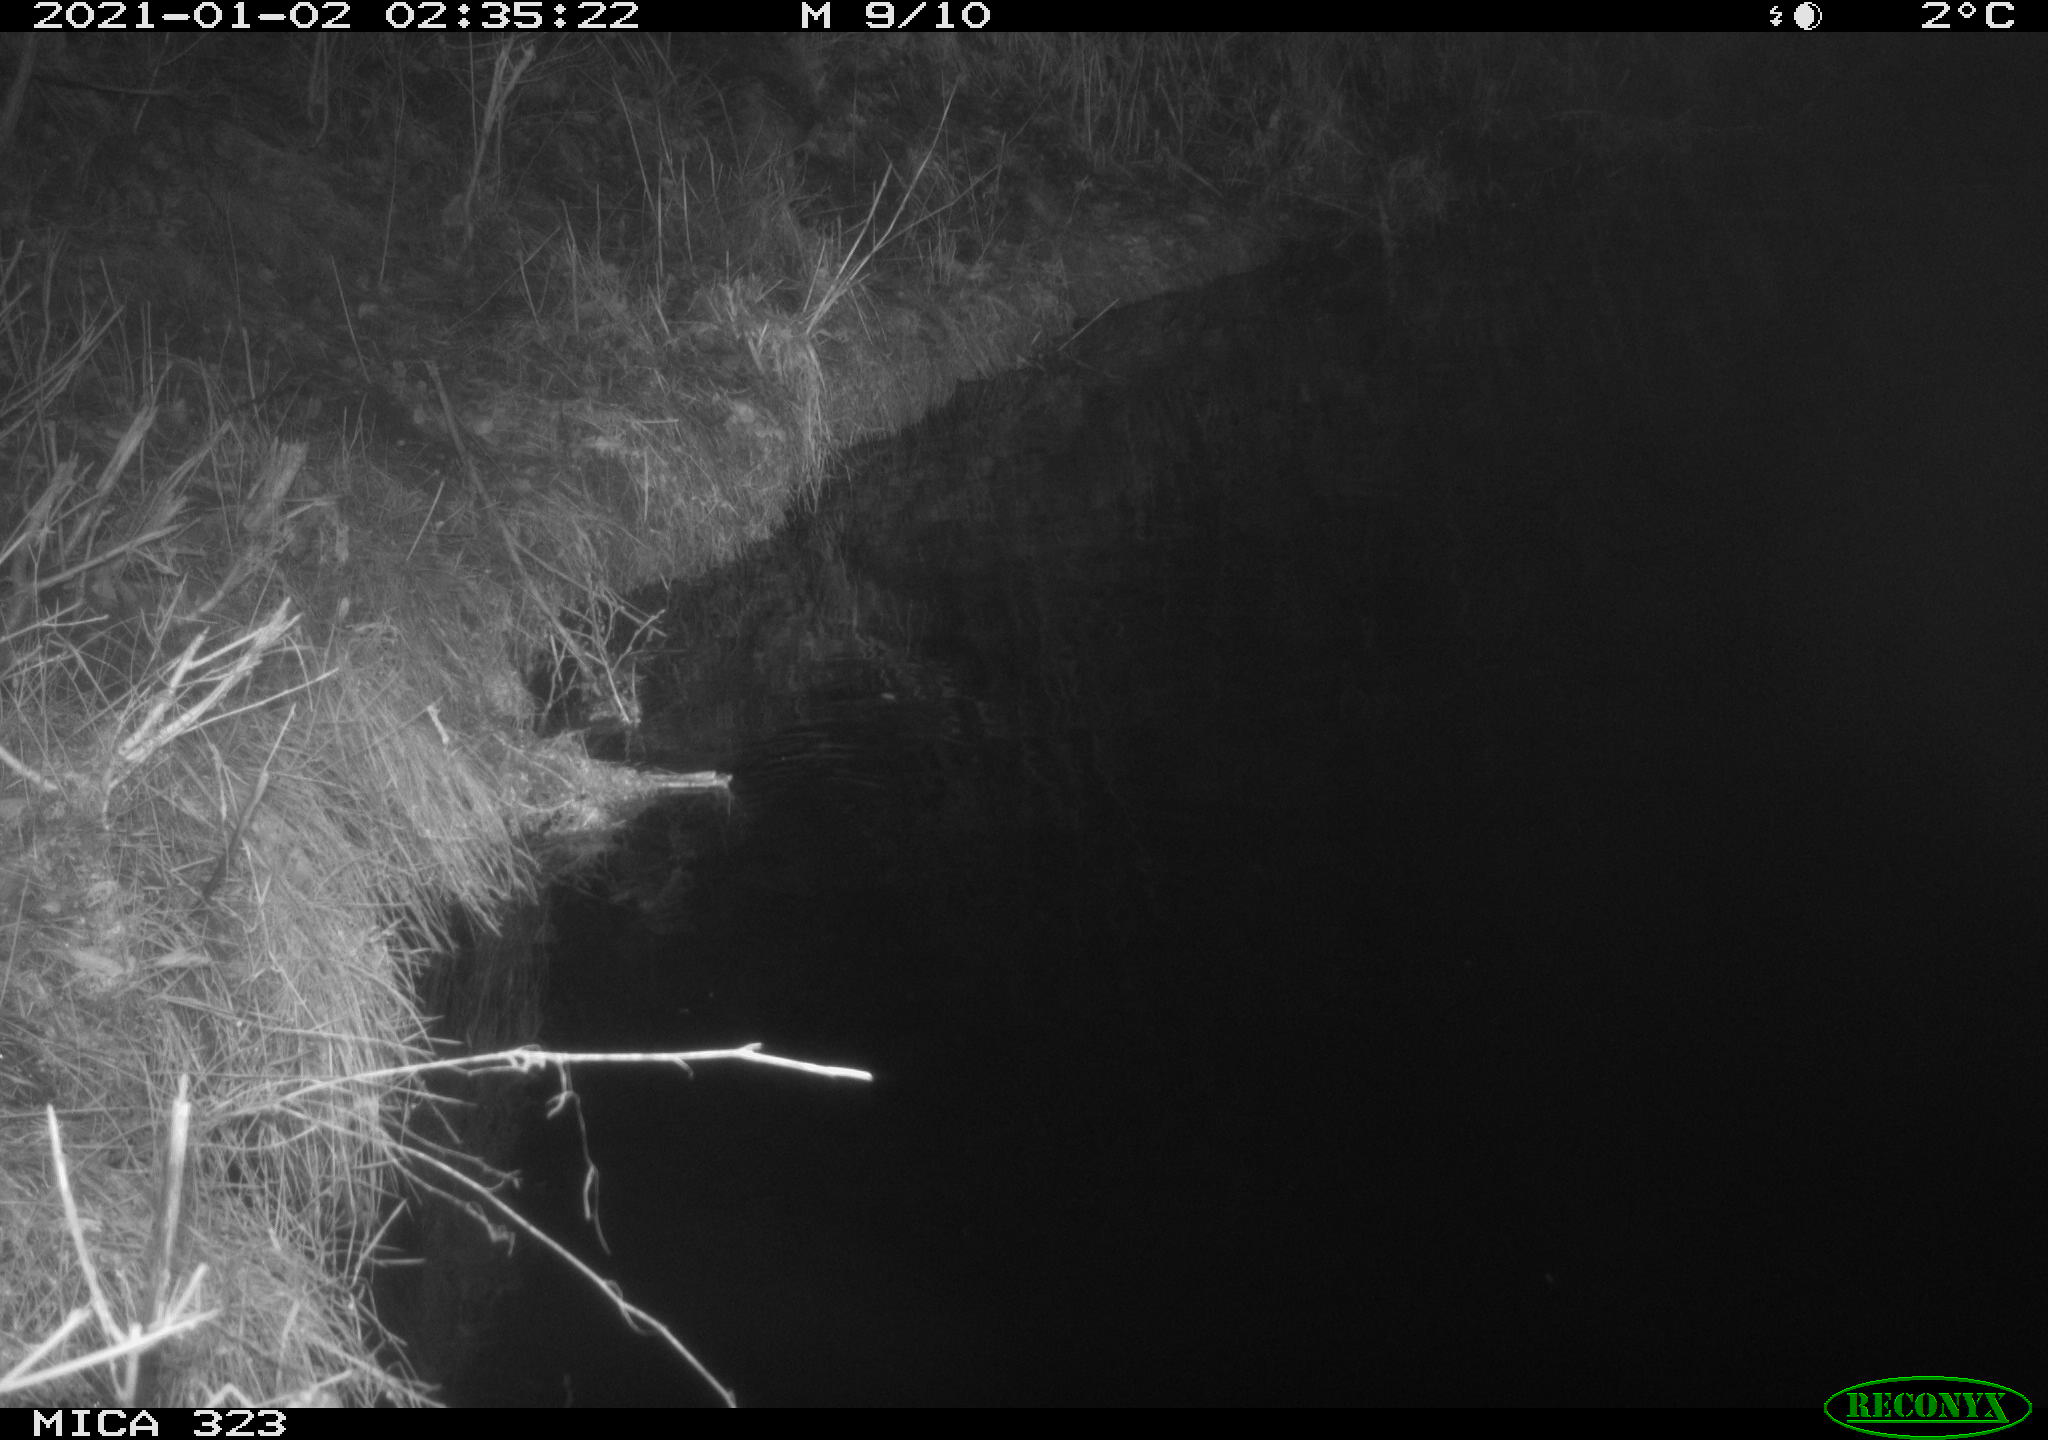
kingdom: Animalia
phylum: Chordata
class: Mammalia
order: Rodentia
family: Myocastoridae
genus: Myocastor
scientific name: Myocastor coypus
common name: Coypu
